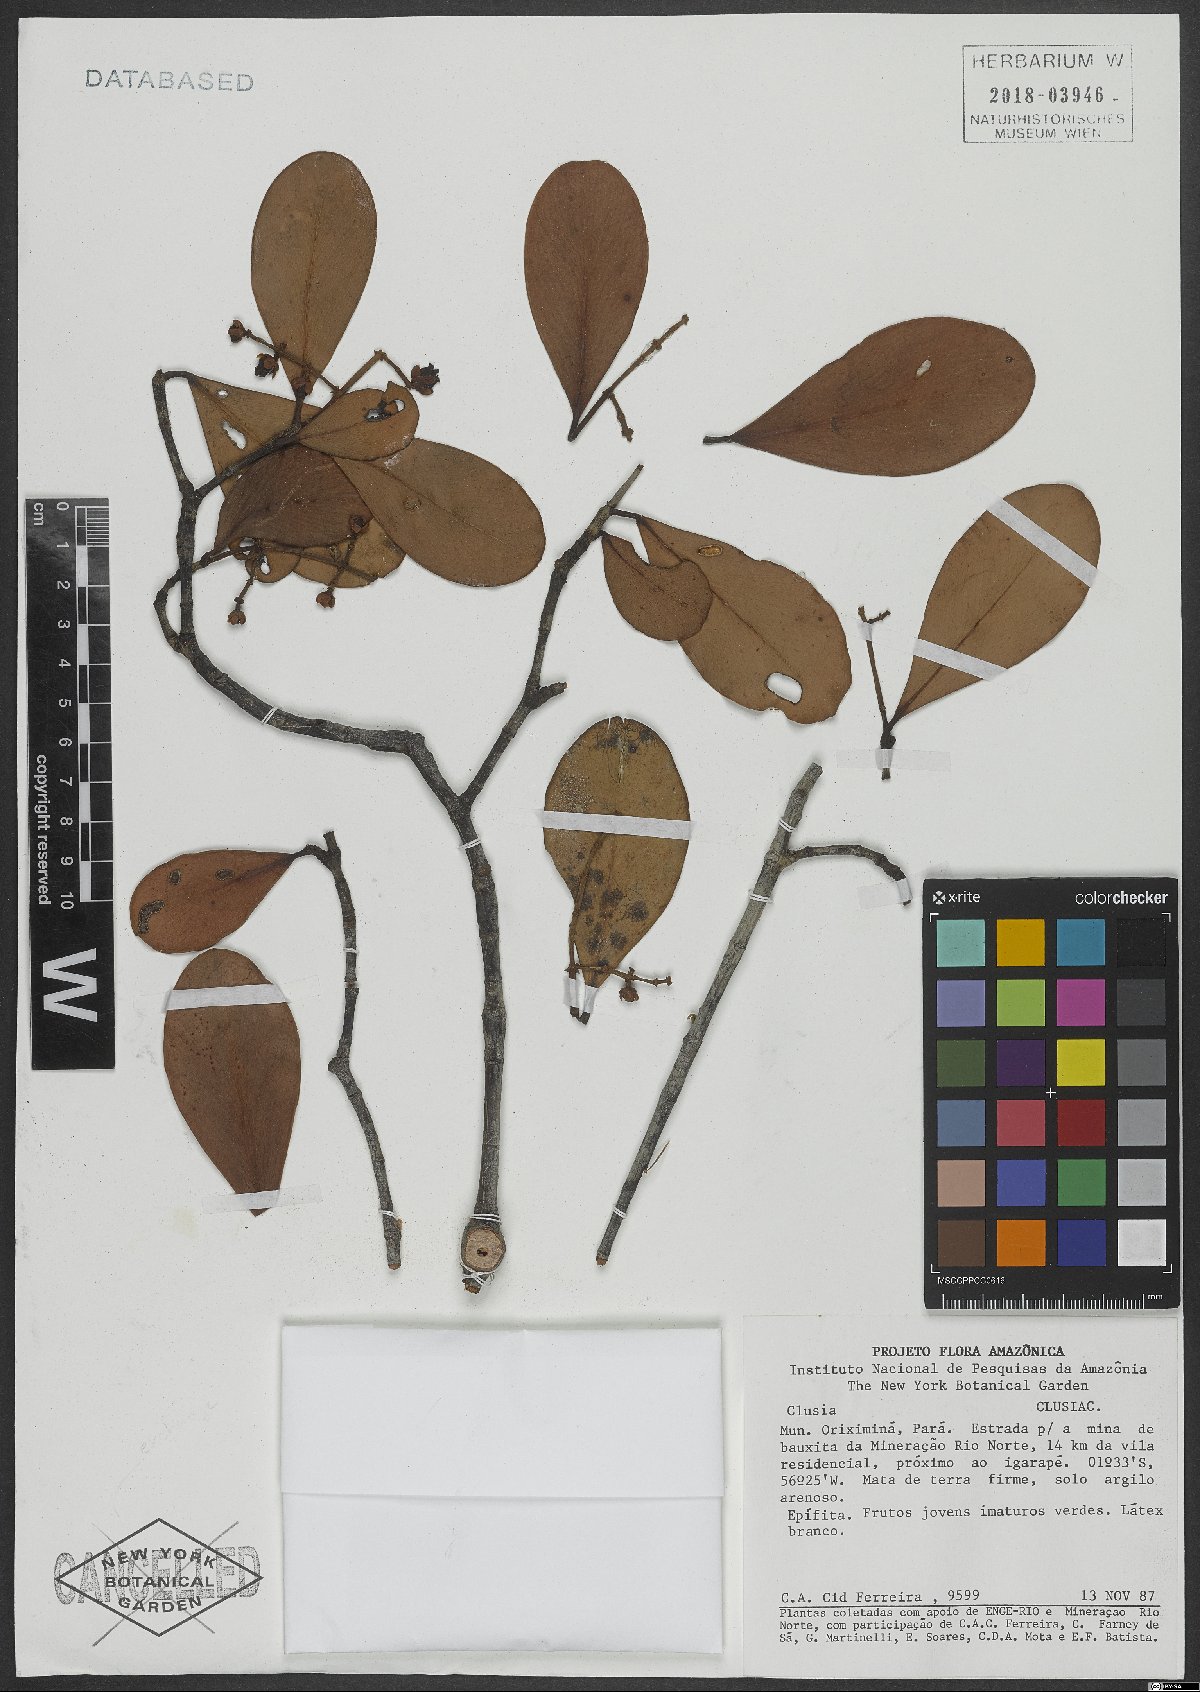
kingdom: Plantae
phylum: Tracheophyta
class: Magnoliopsida
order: Malpighiales
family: Clusiaceae
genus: Clusia
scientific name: Clusia
